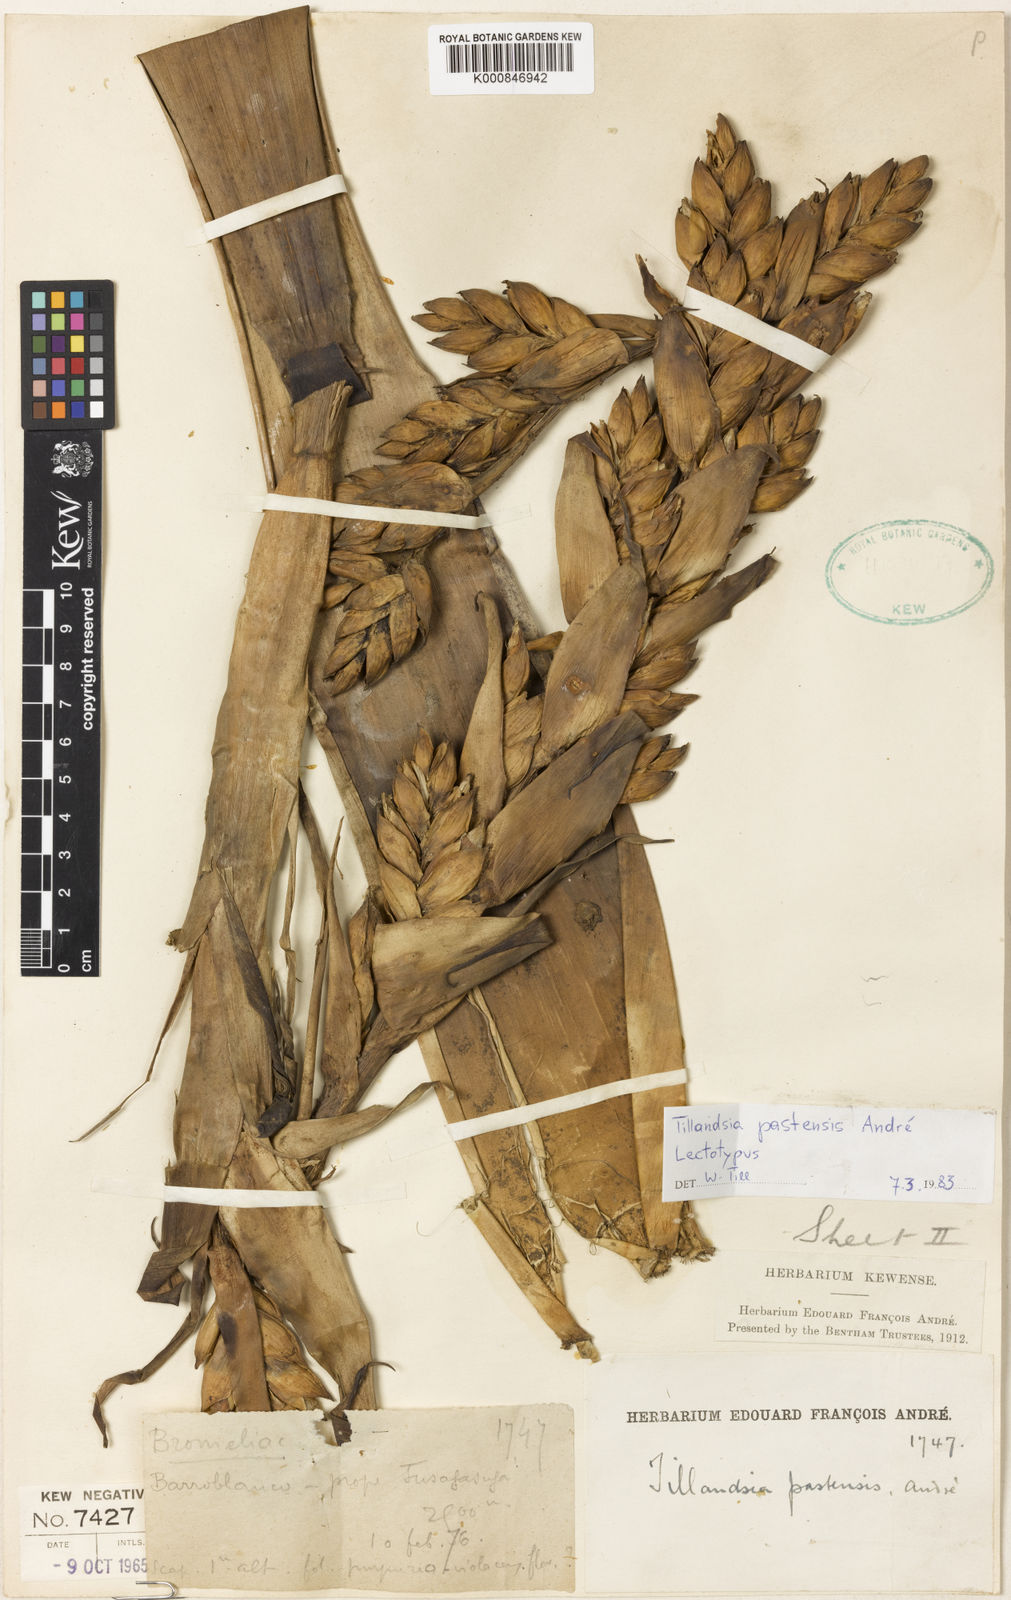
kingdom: Plantae
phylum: Tracheophyta
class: Liliopsida
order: Poales
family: Bromeliaceae
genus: Tillandsia
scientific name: Tillandsia
